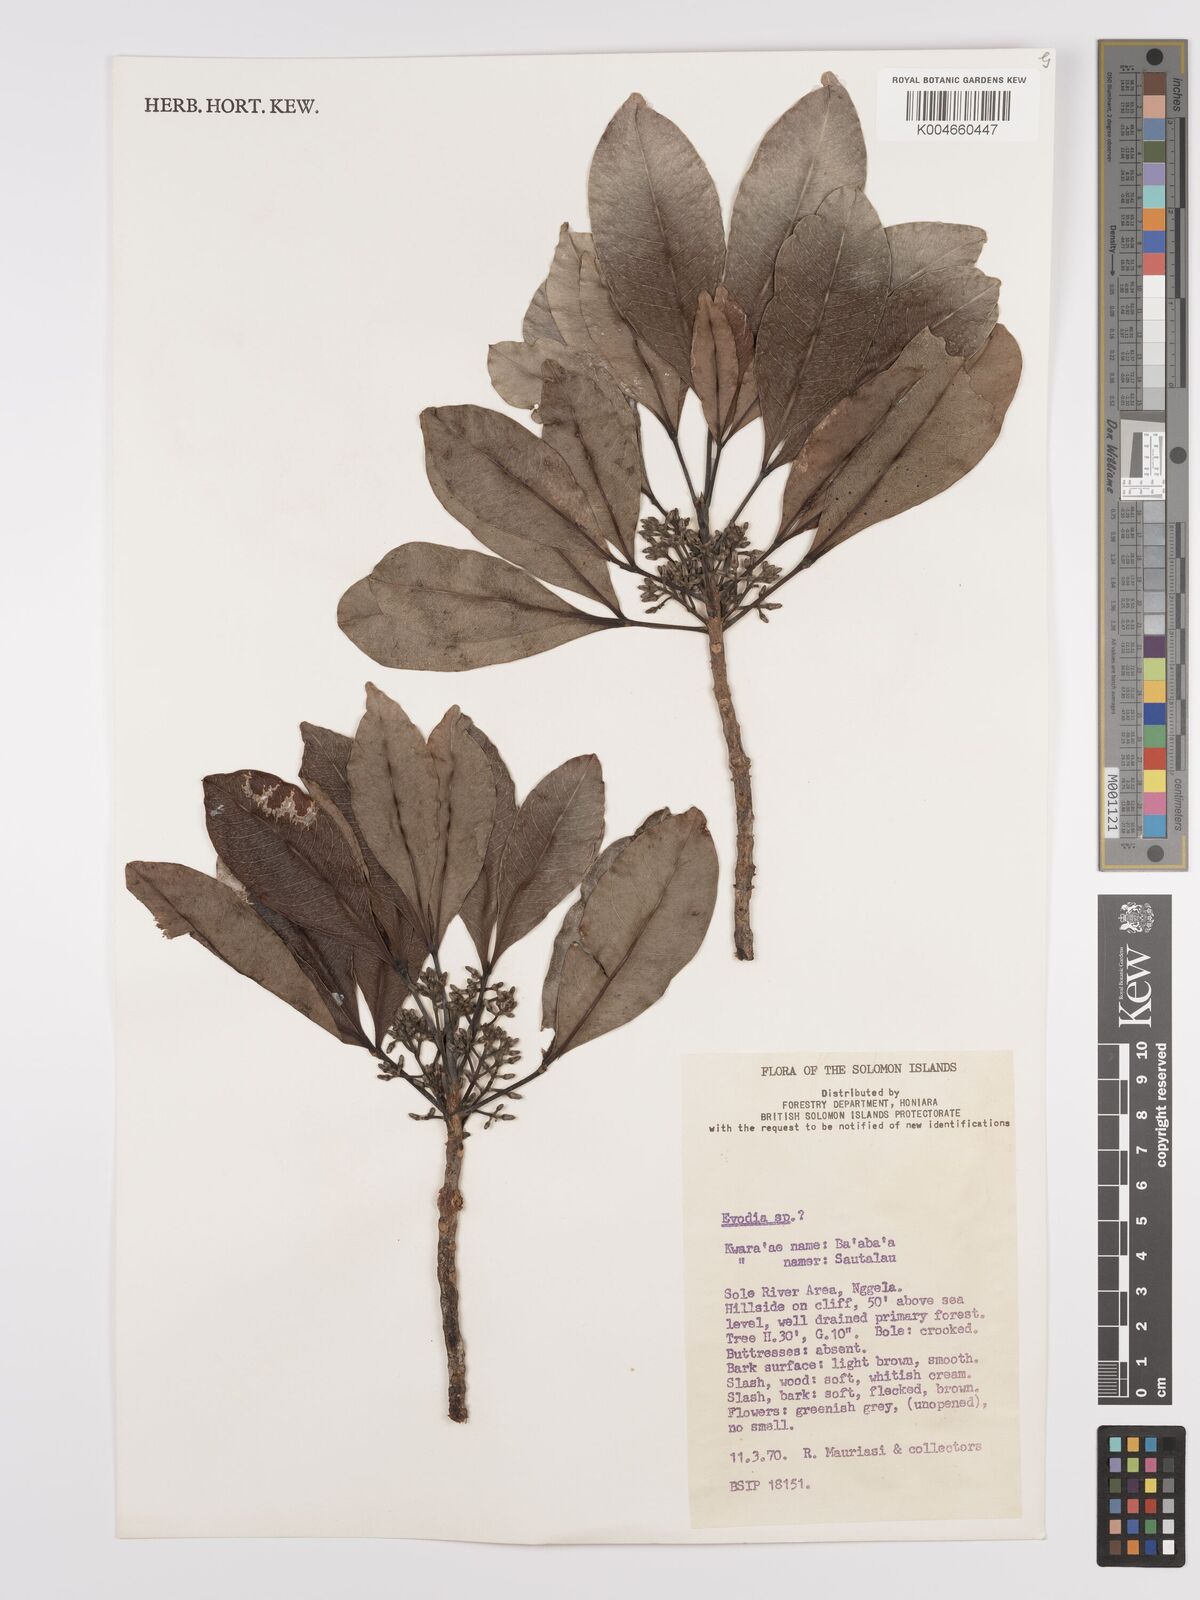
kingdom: Plantae
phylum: Tracheophyta
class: Magnoliopsida
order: Sapindales
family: Rutaceae
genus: Euodia
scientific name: Euodia
